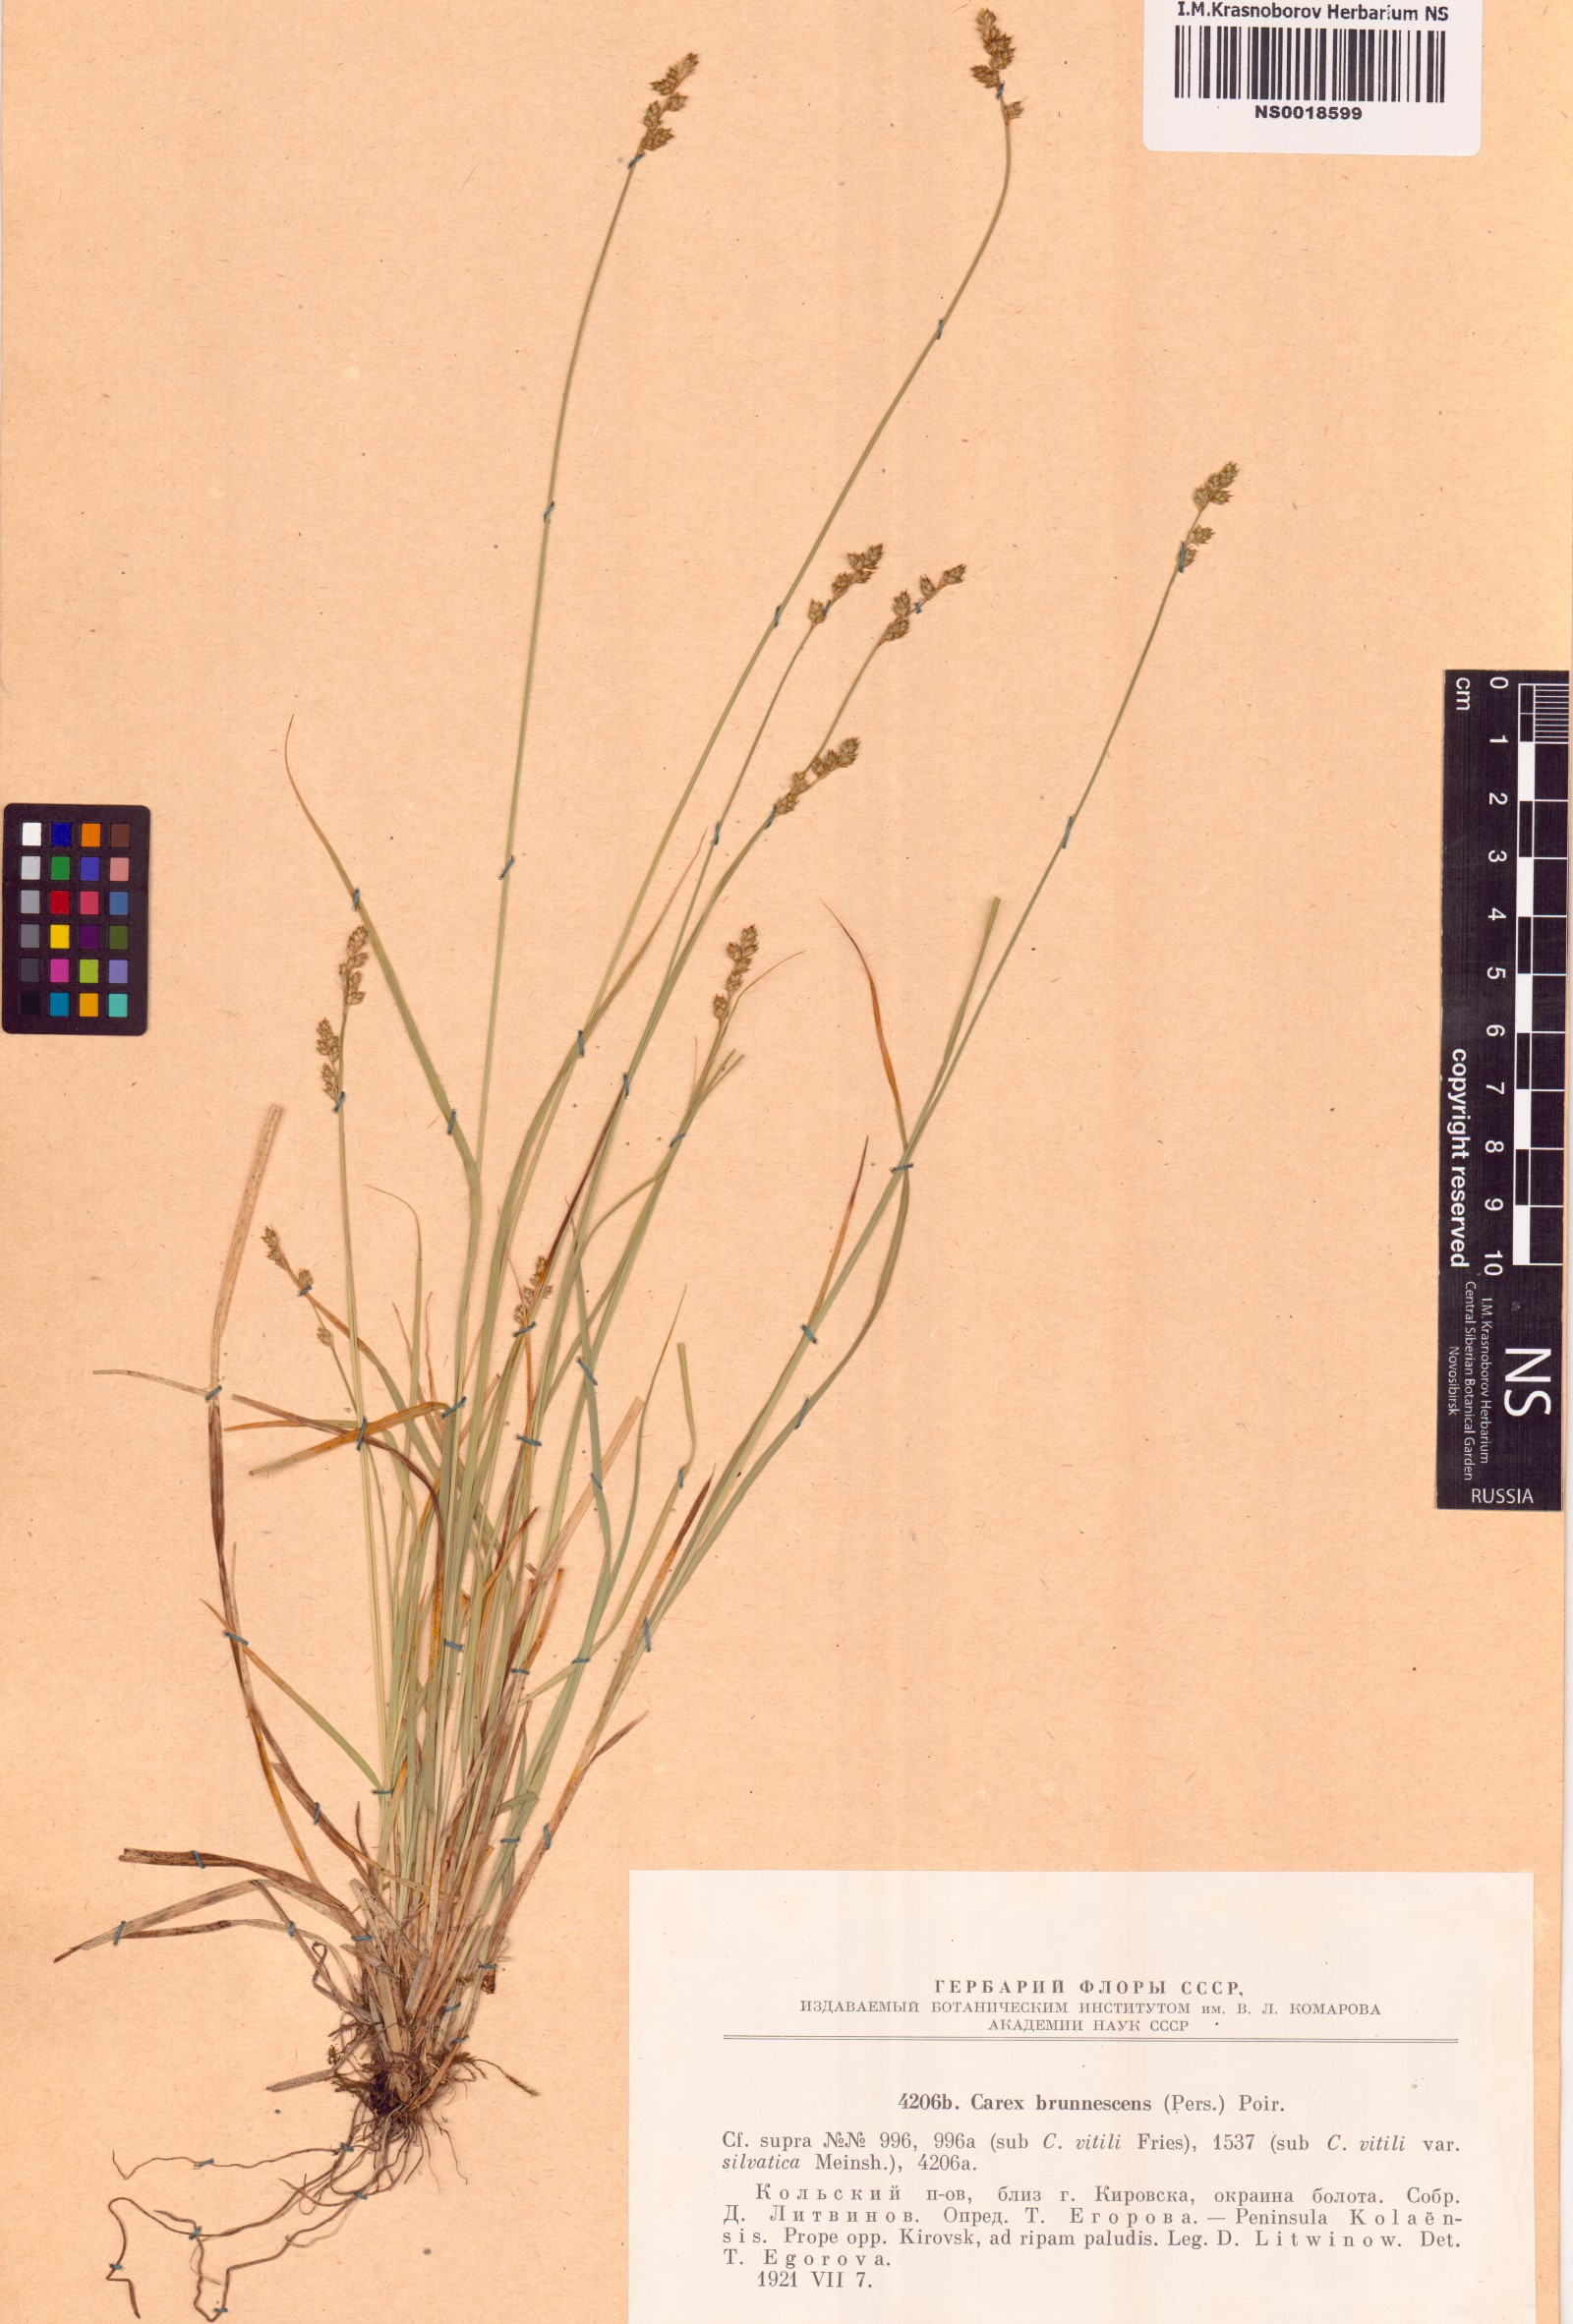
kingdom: Plantae
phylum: Tracheophyta
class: Liliopsida
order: Poales
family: Cyperaceae
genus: Carex
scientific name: Carex brunnescens
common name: Brown sedge
